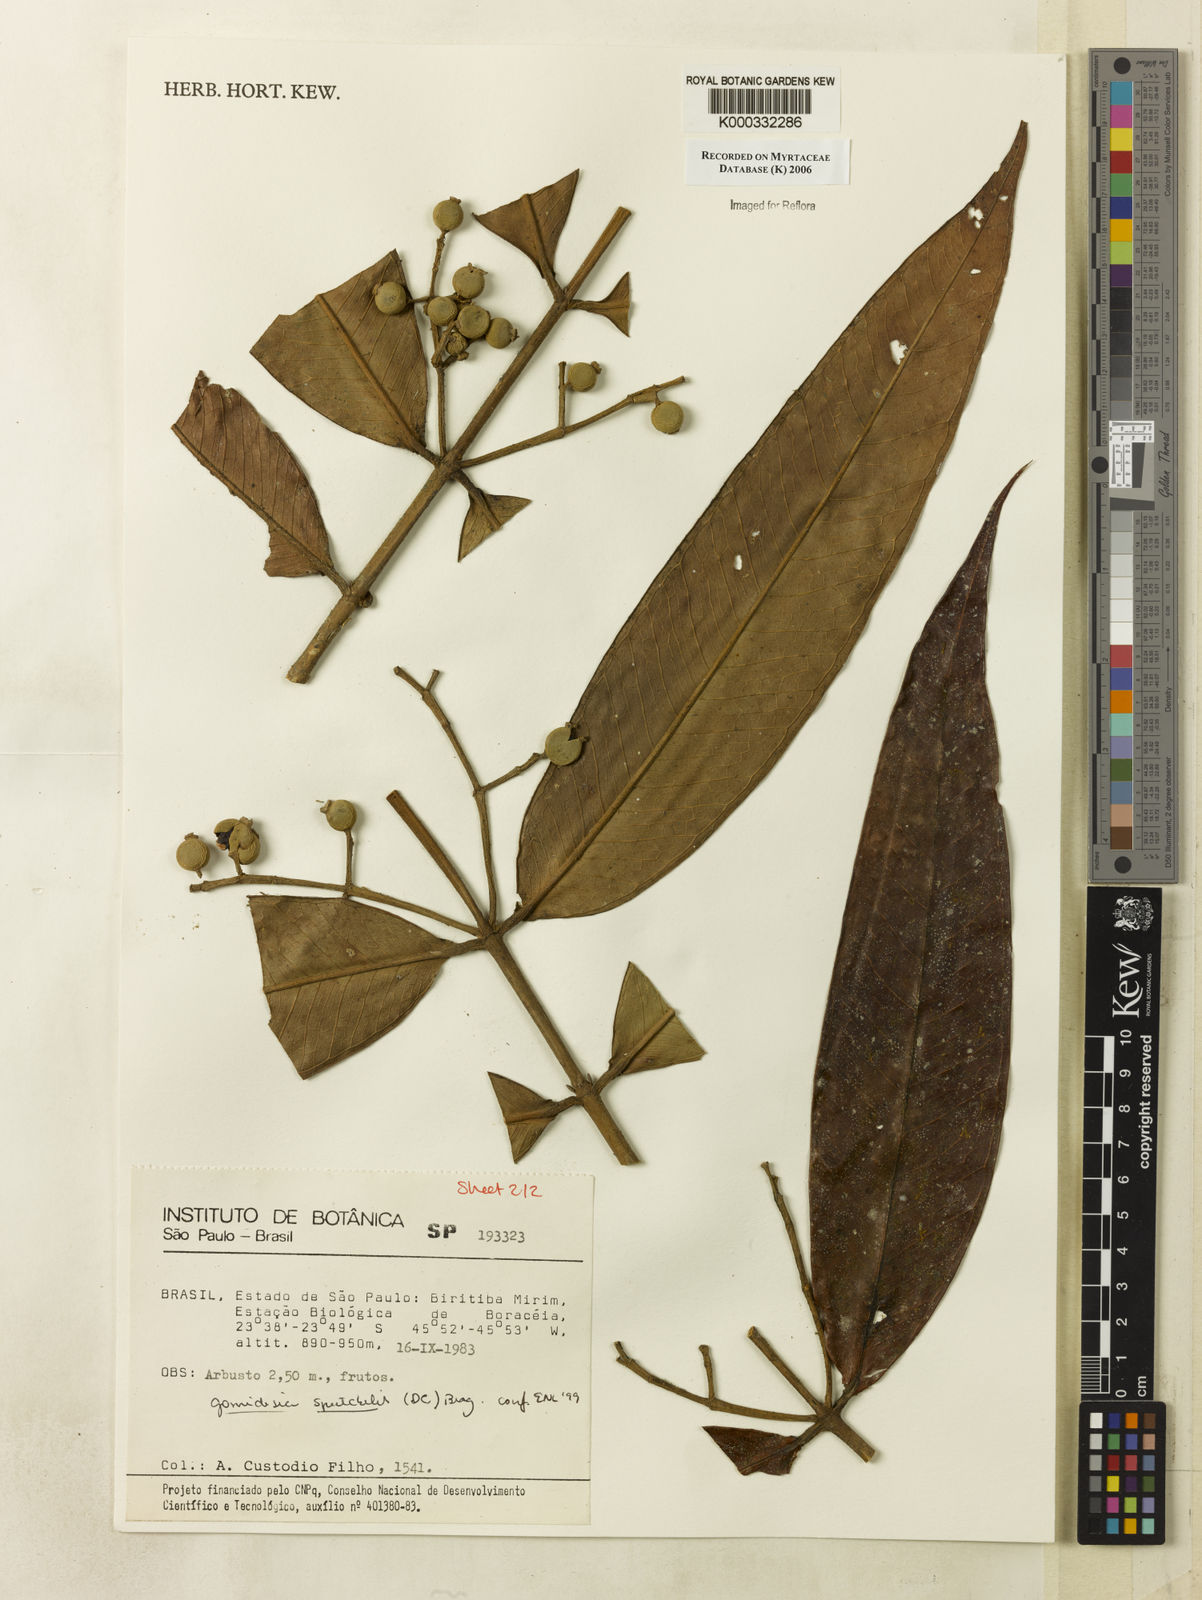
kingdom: Plantae
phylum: Tracheophyta
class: Magnoliopsida
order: Myrtales
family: Myrtaceae
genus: Myrcia
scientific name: Myrcia spectabilis
